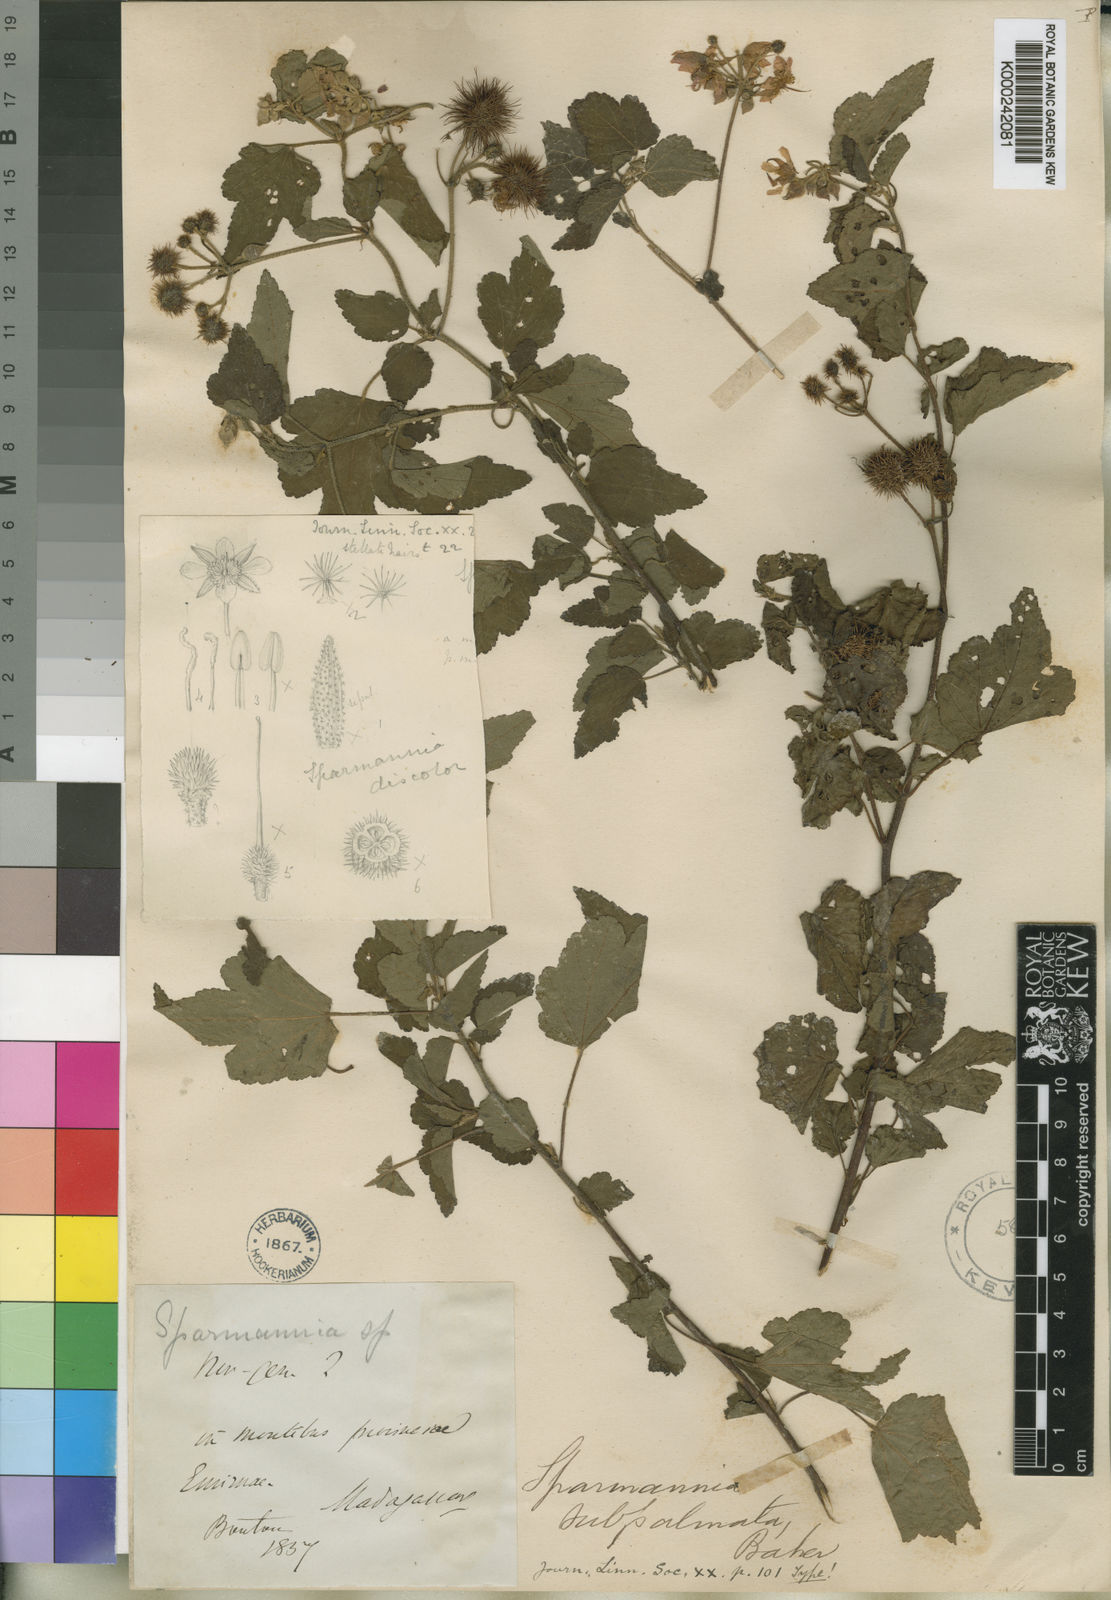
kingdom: Plantae
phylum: Tracheophyta
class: Magnoliopsida
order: Malvales
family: Malvaceae
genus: Sparrmannia
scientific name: Sparrmannia subpalmata
